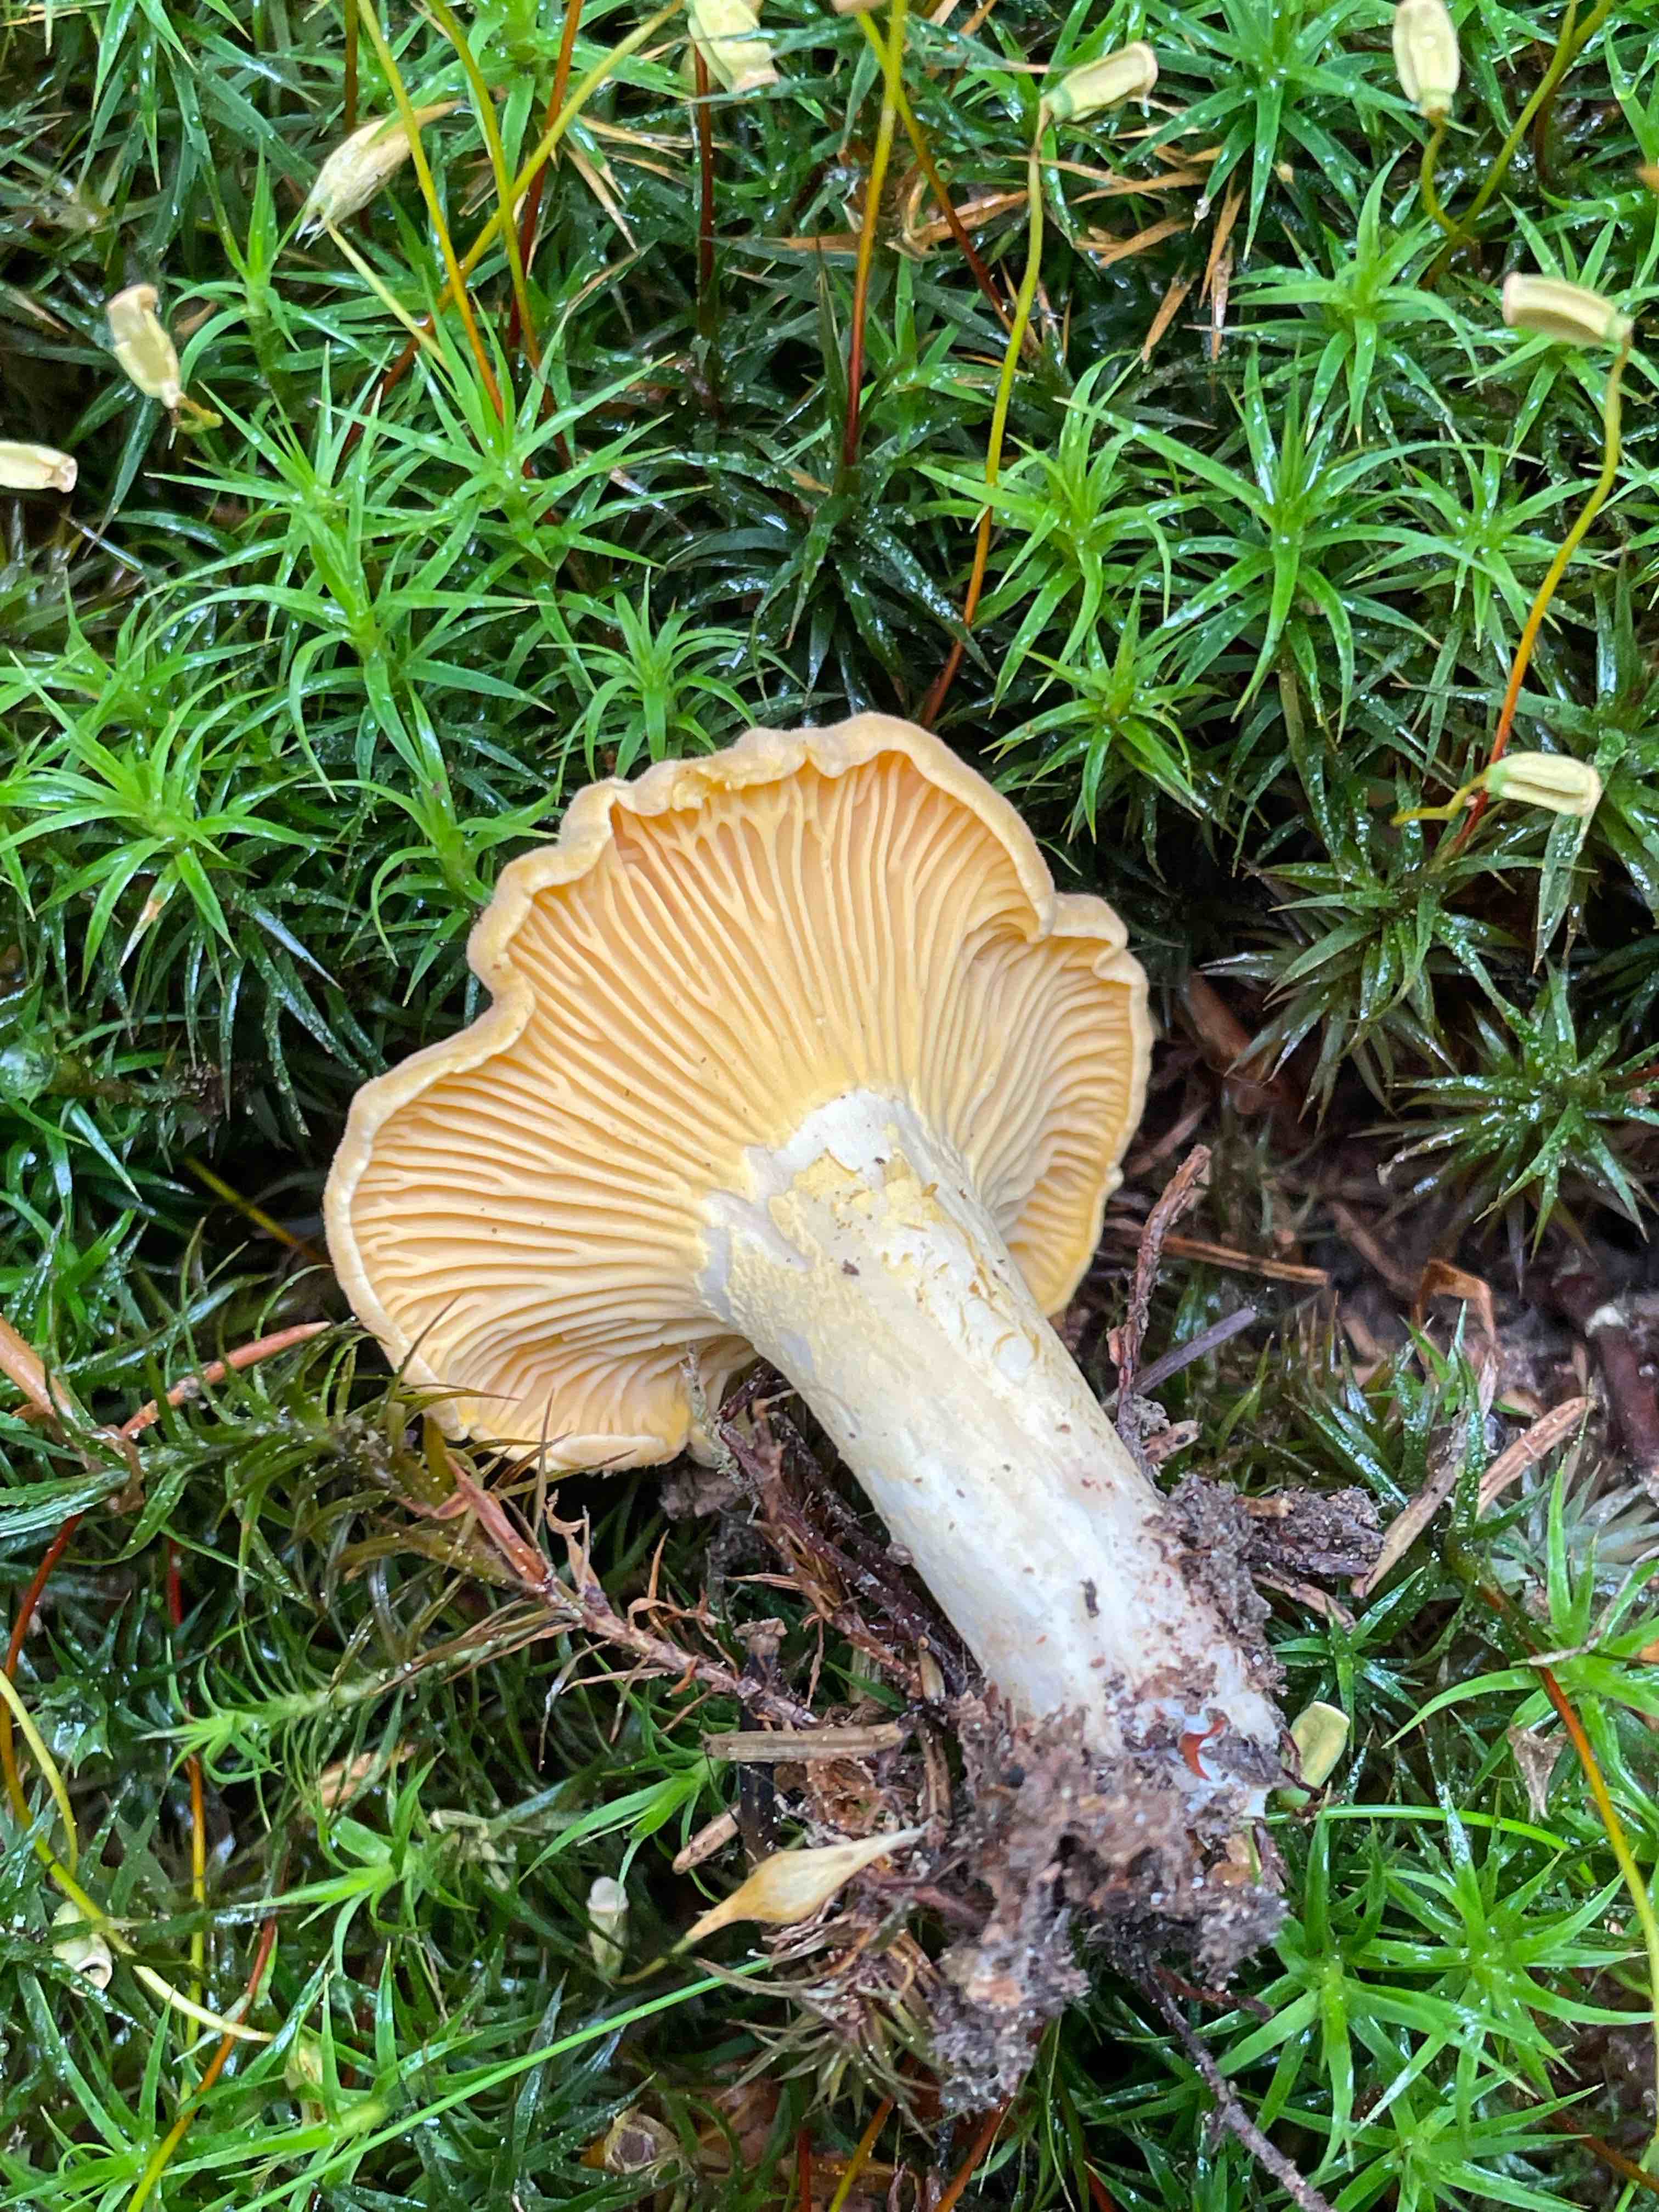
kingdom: Fungi
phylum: Basidiomycota
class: Agaricomycetes
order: Cantharellales
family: Hydnaceae
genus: Cantharellus
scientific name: Cantharellus cibarius
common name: almindelig kantarel
